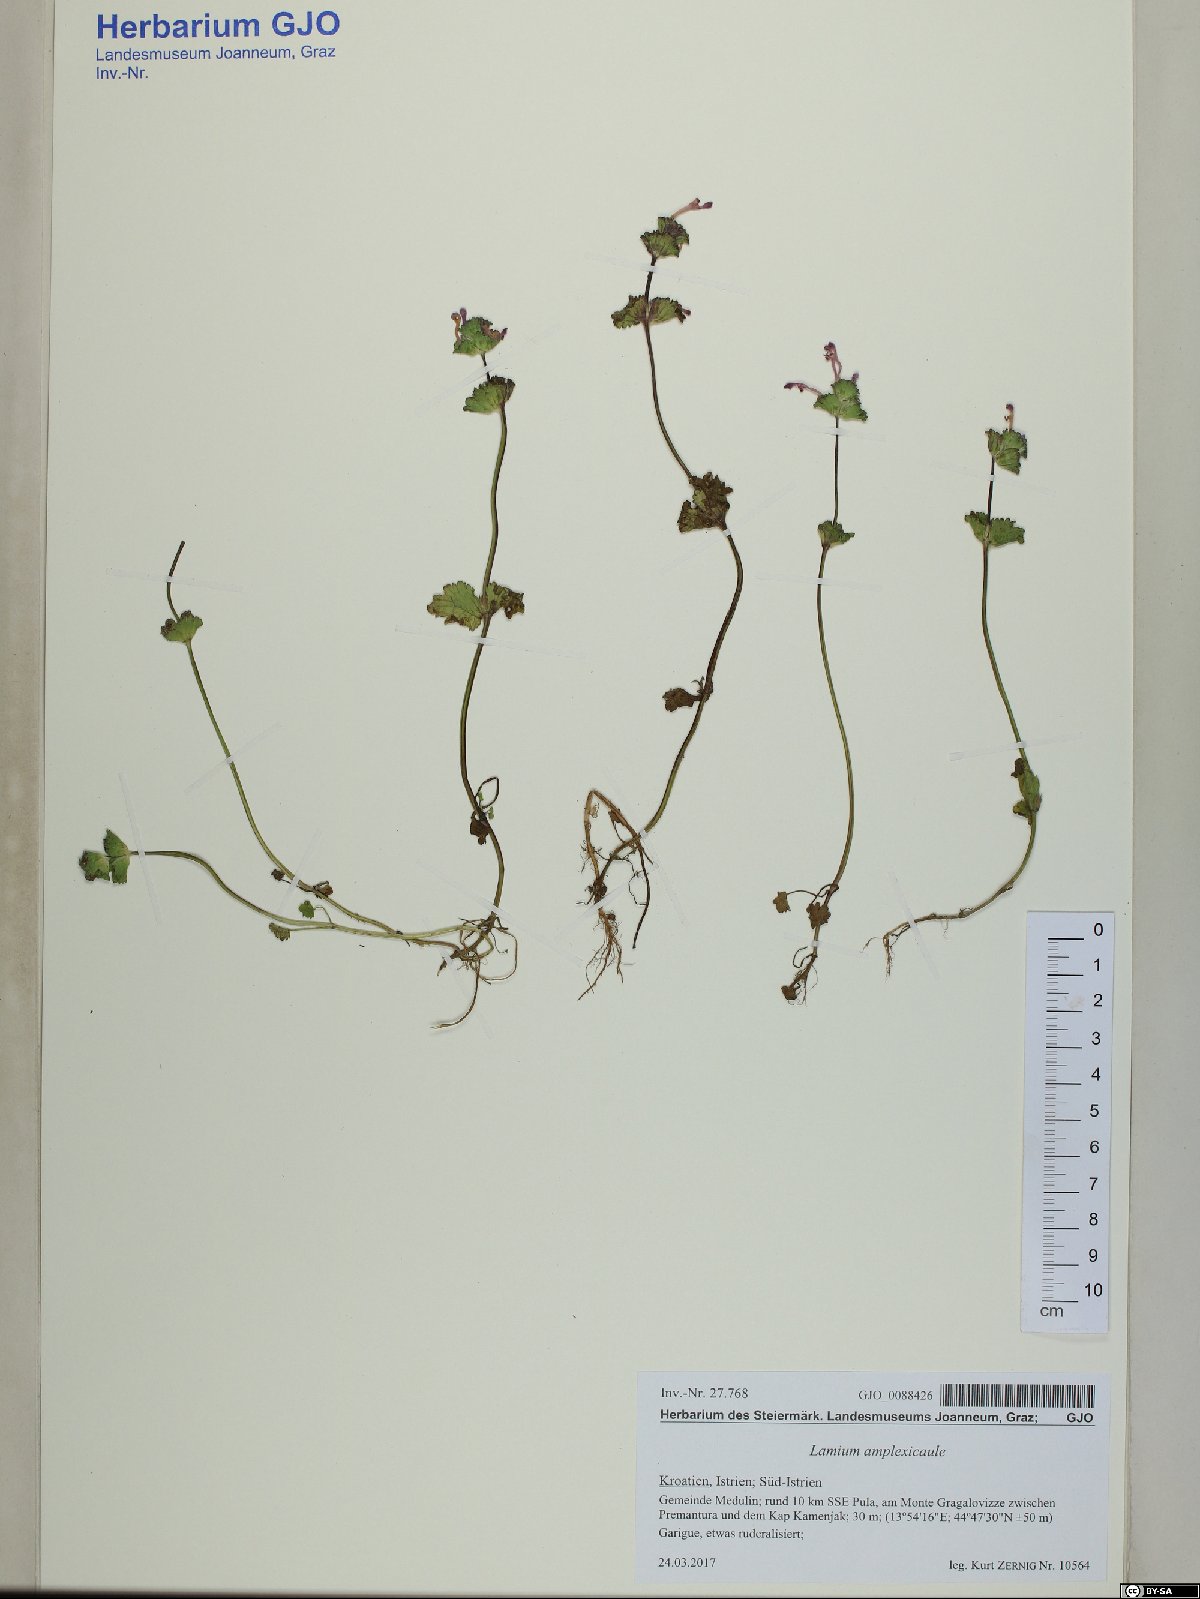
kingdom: Plantae
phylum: Tracheophyta
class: Magnoliopsida
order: Lamiales
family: Lamiaceae
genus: Lamium
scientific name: Lamium amplexicaule
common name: Henbit dead-nettle
